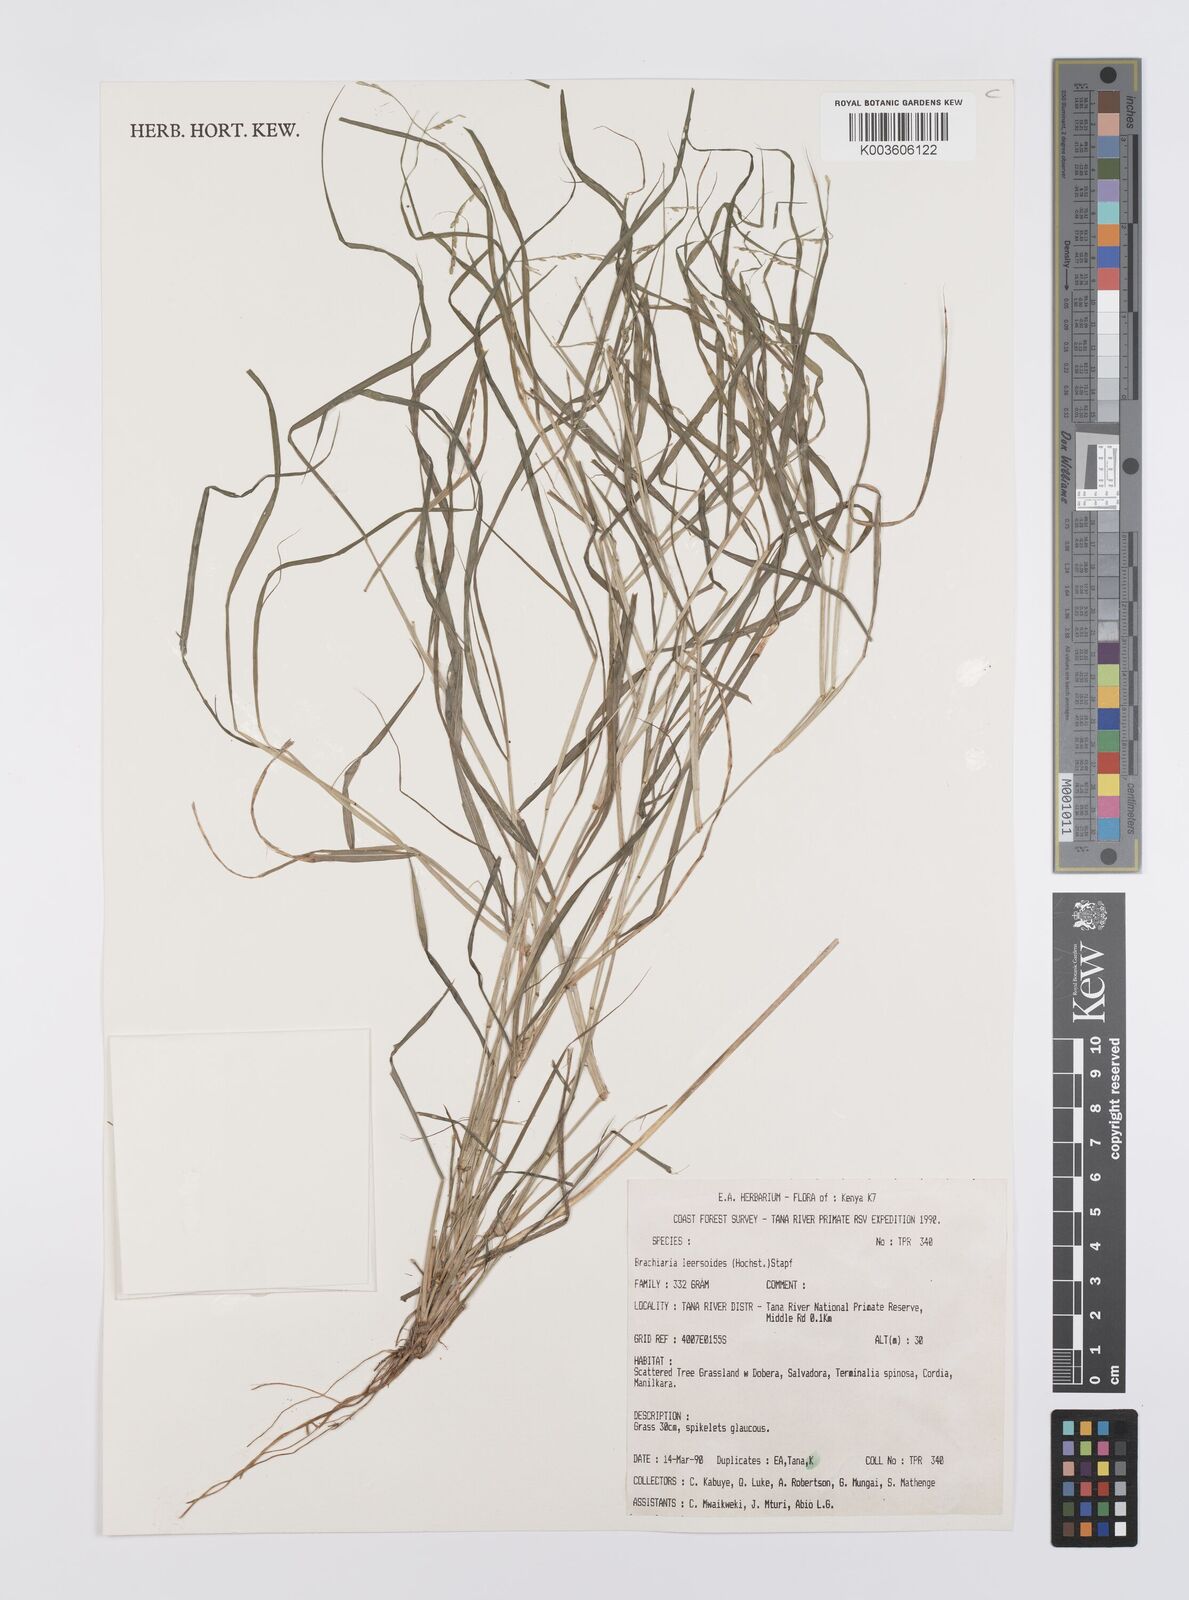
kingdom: Plantae
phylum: Tracheophyta
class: Liliopsida
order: Poales
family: Poaceae
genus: Urochloa
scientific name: Urochloa leersioides
